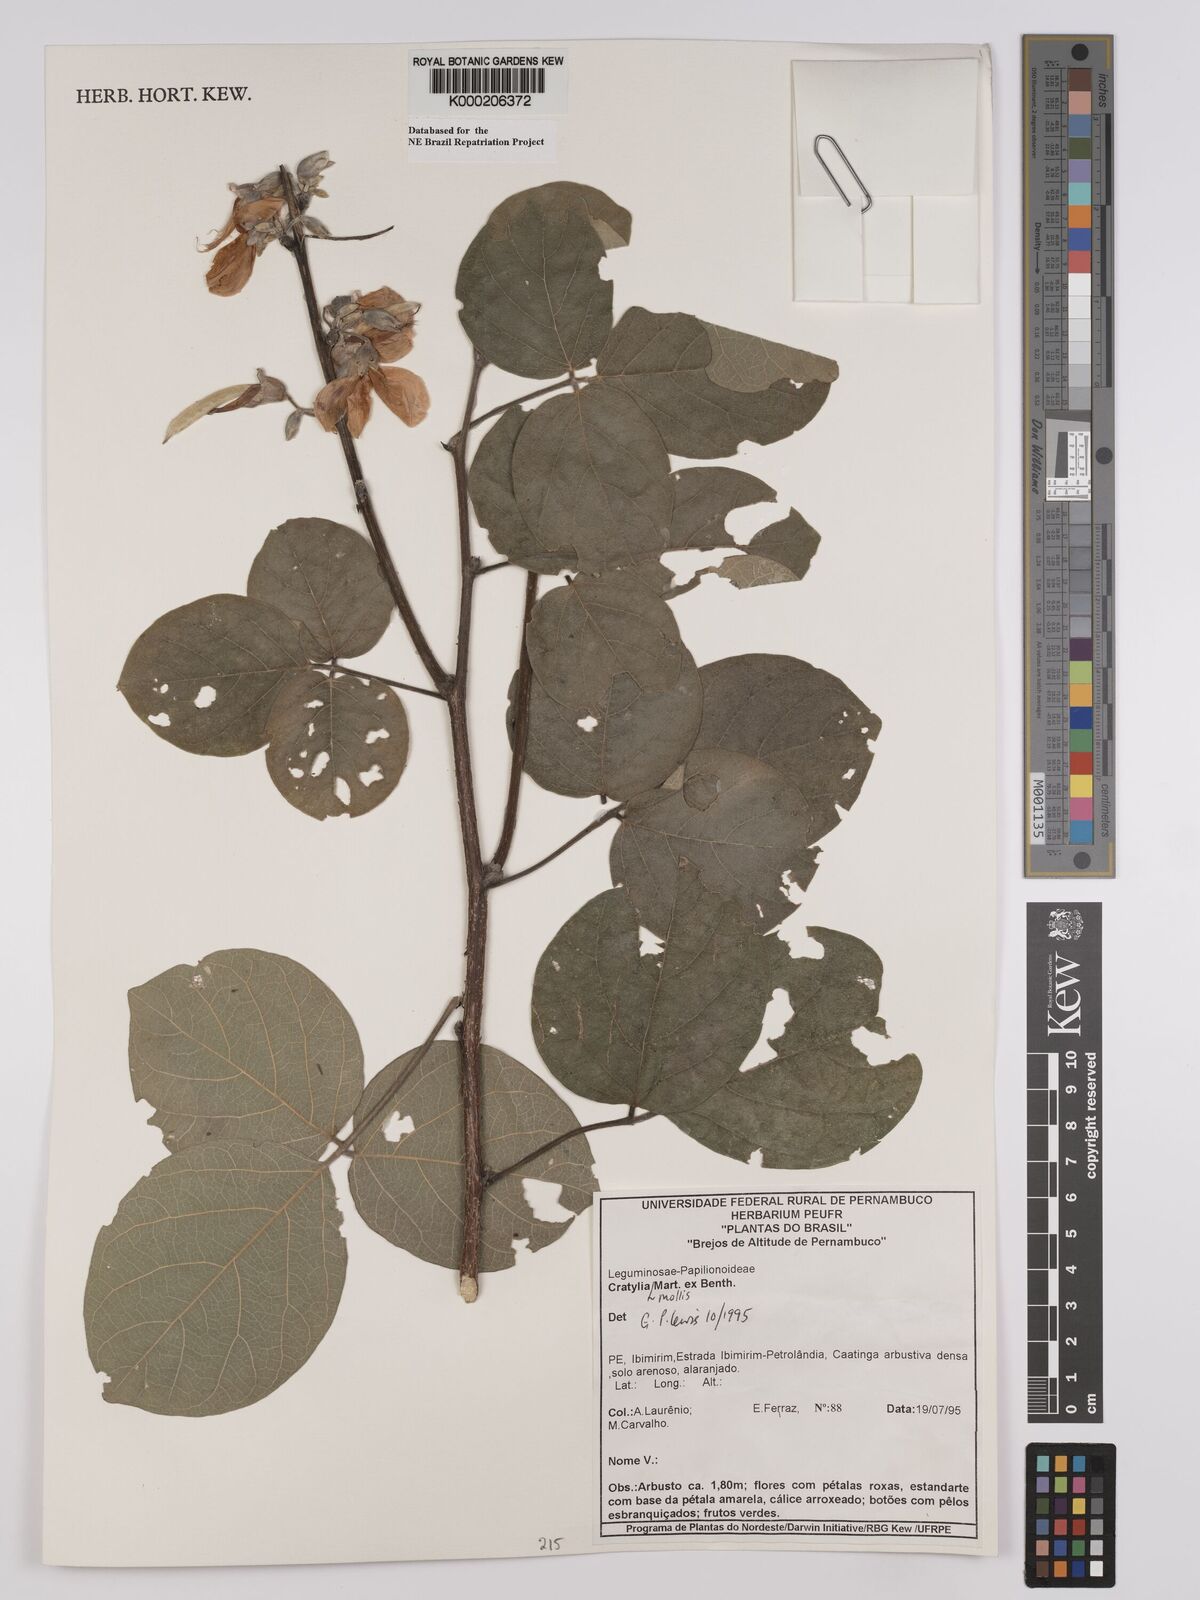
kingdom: Plantae
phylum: Tracheophyta
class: Magnoliopsida
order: Fabales
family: Fabaceae
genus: Cratylia
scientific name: Cratylia mollis
